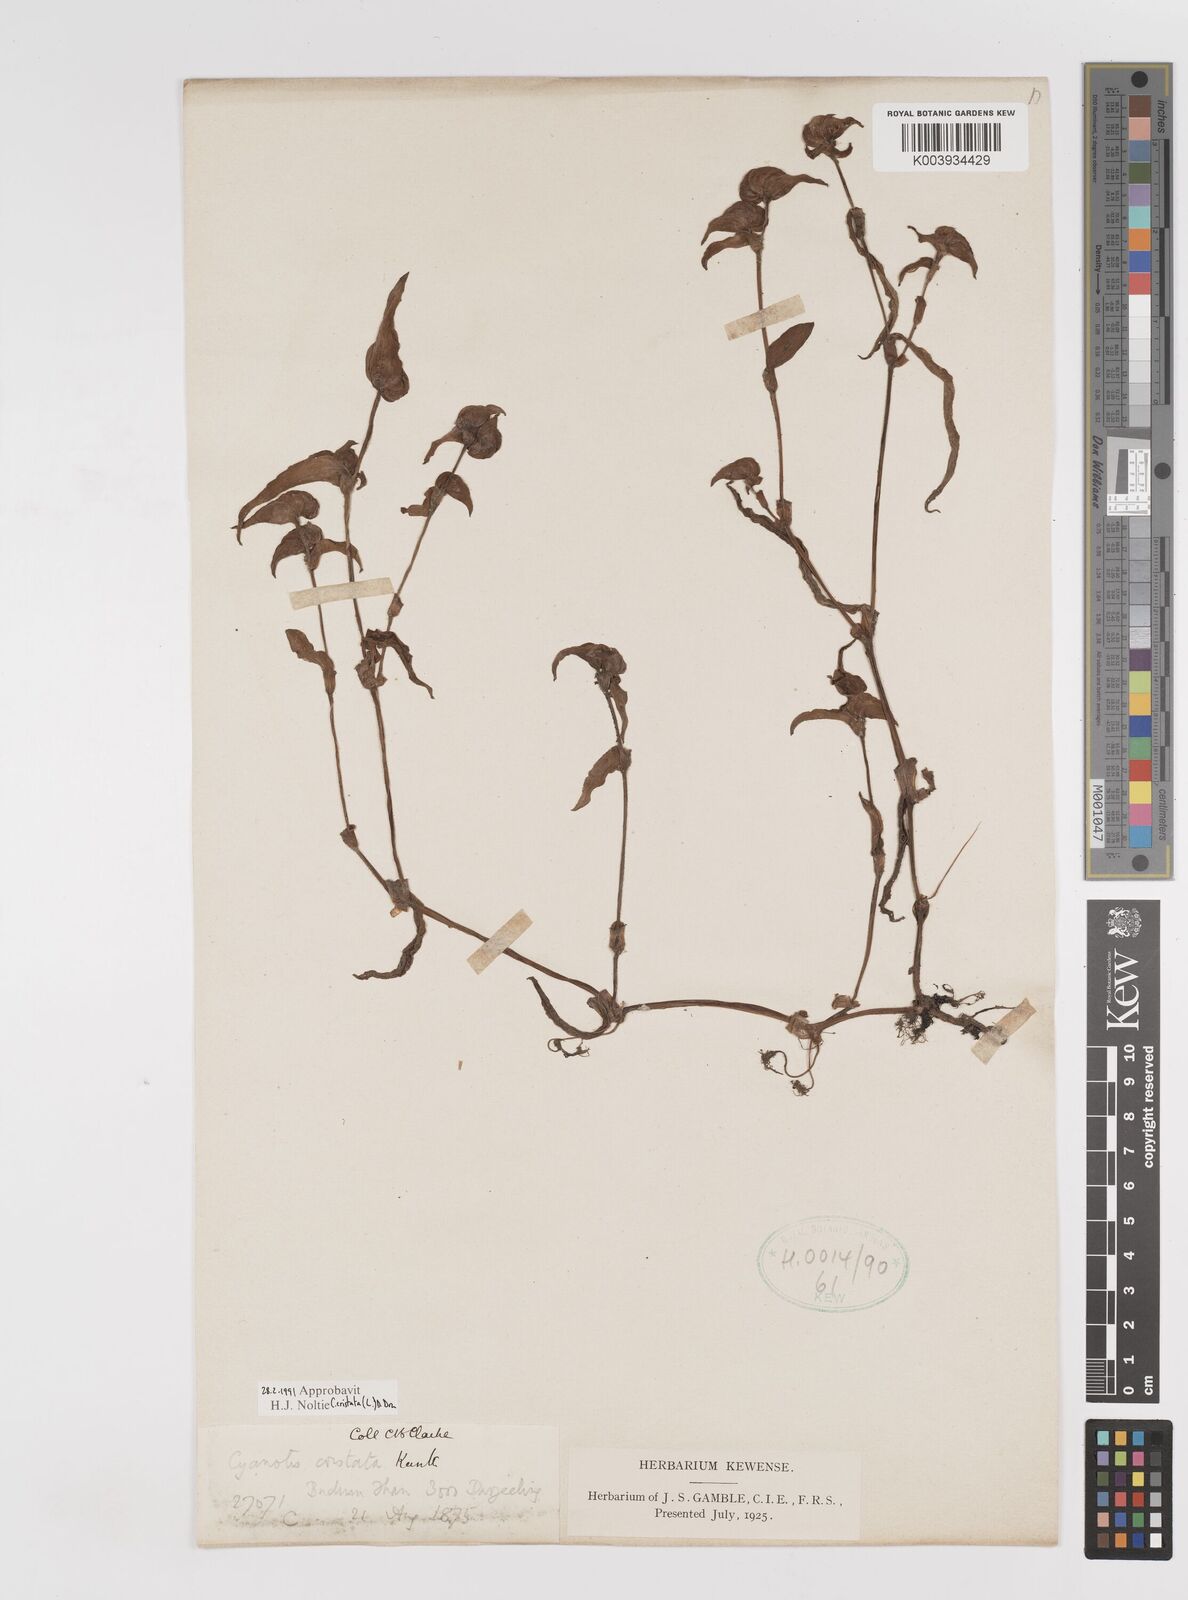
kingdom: Plantae
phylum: Tracheophyta
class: Liliopsida
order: Commelinales
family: Commelinaceae
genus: Cyanotis
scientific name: Cyanotis cristata
